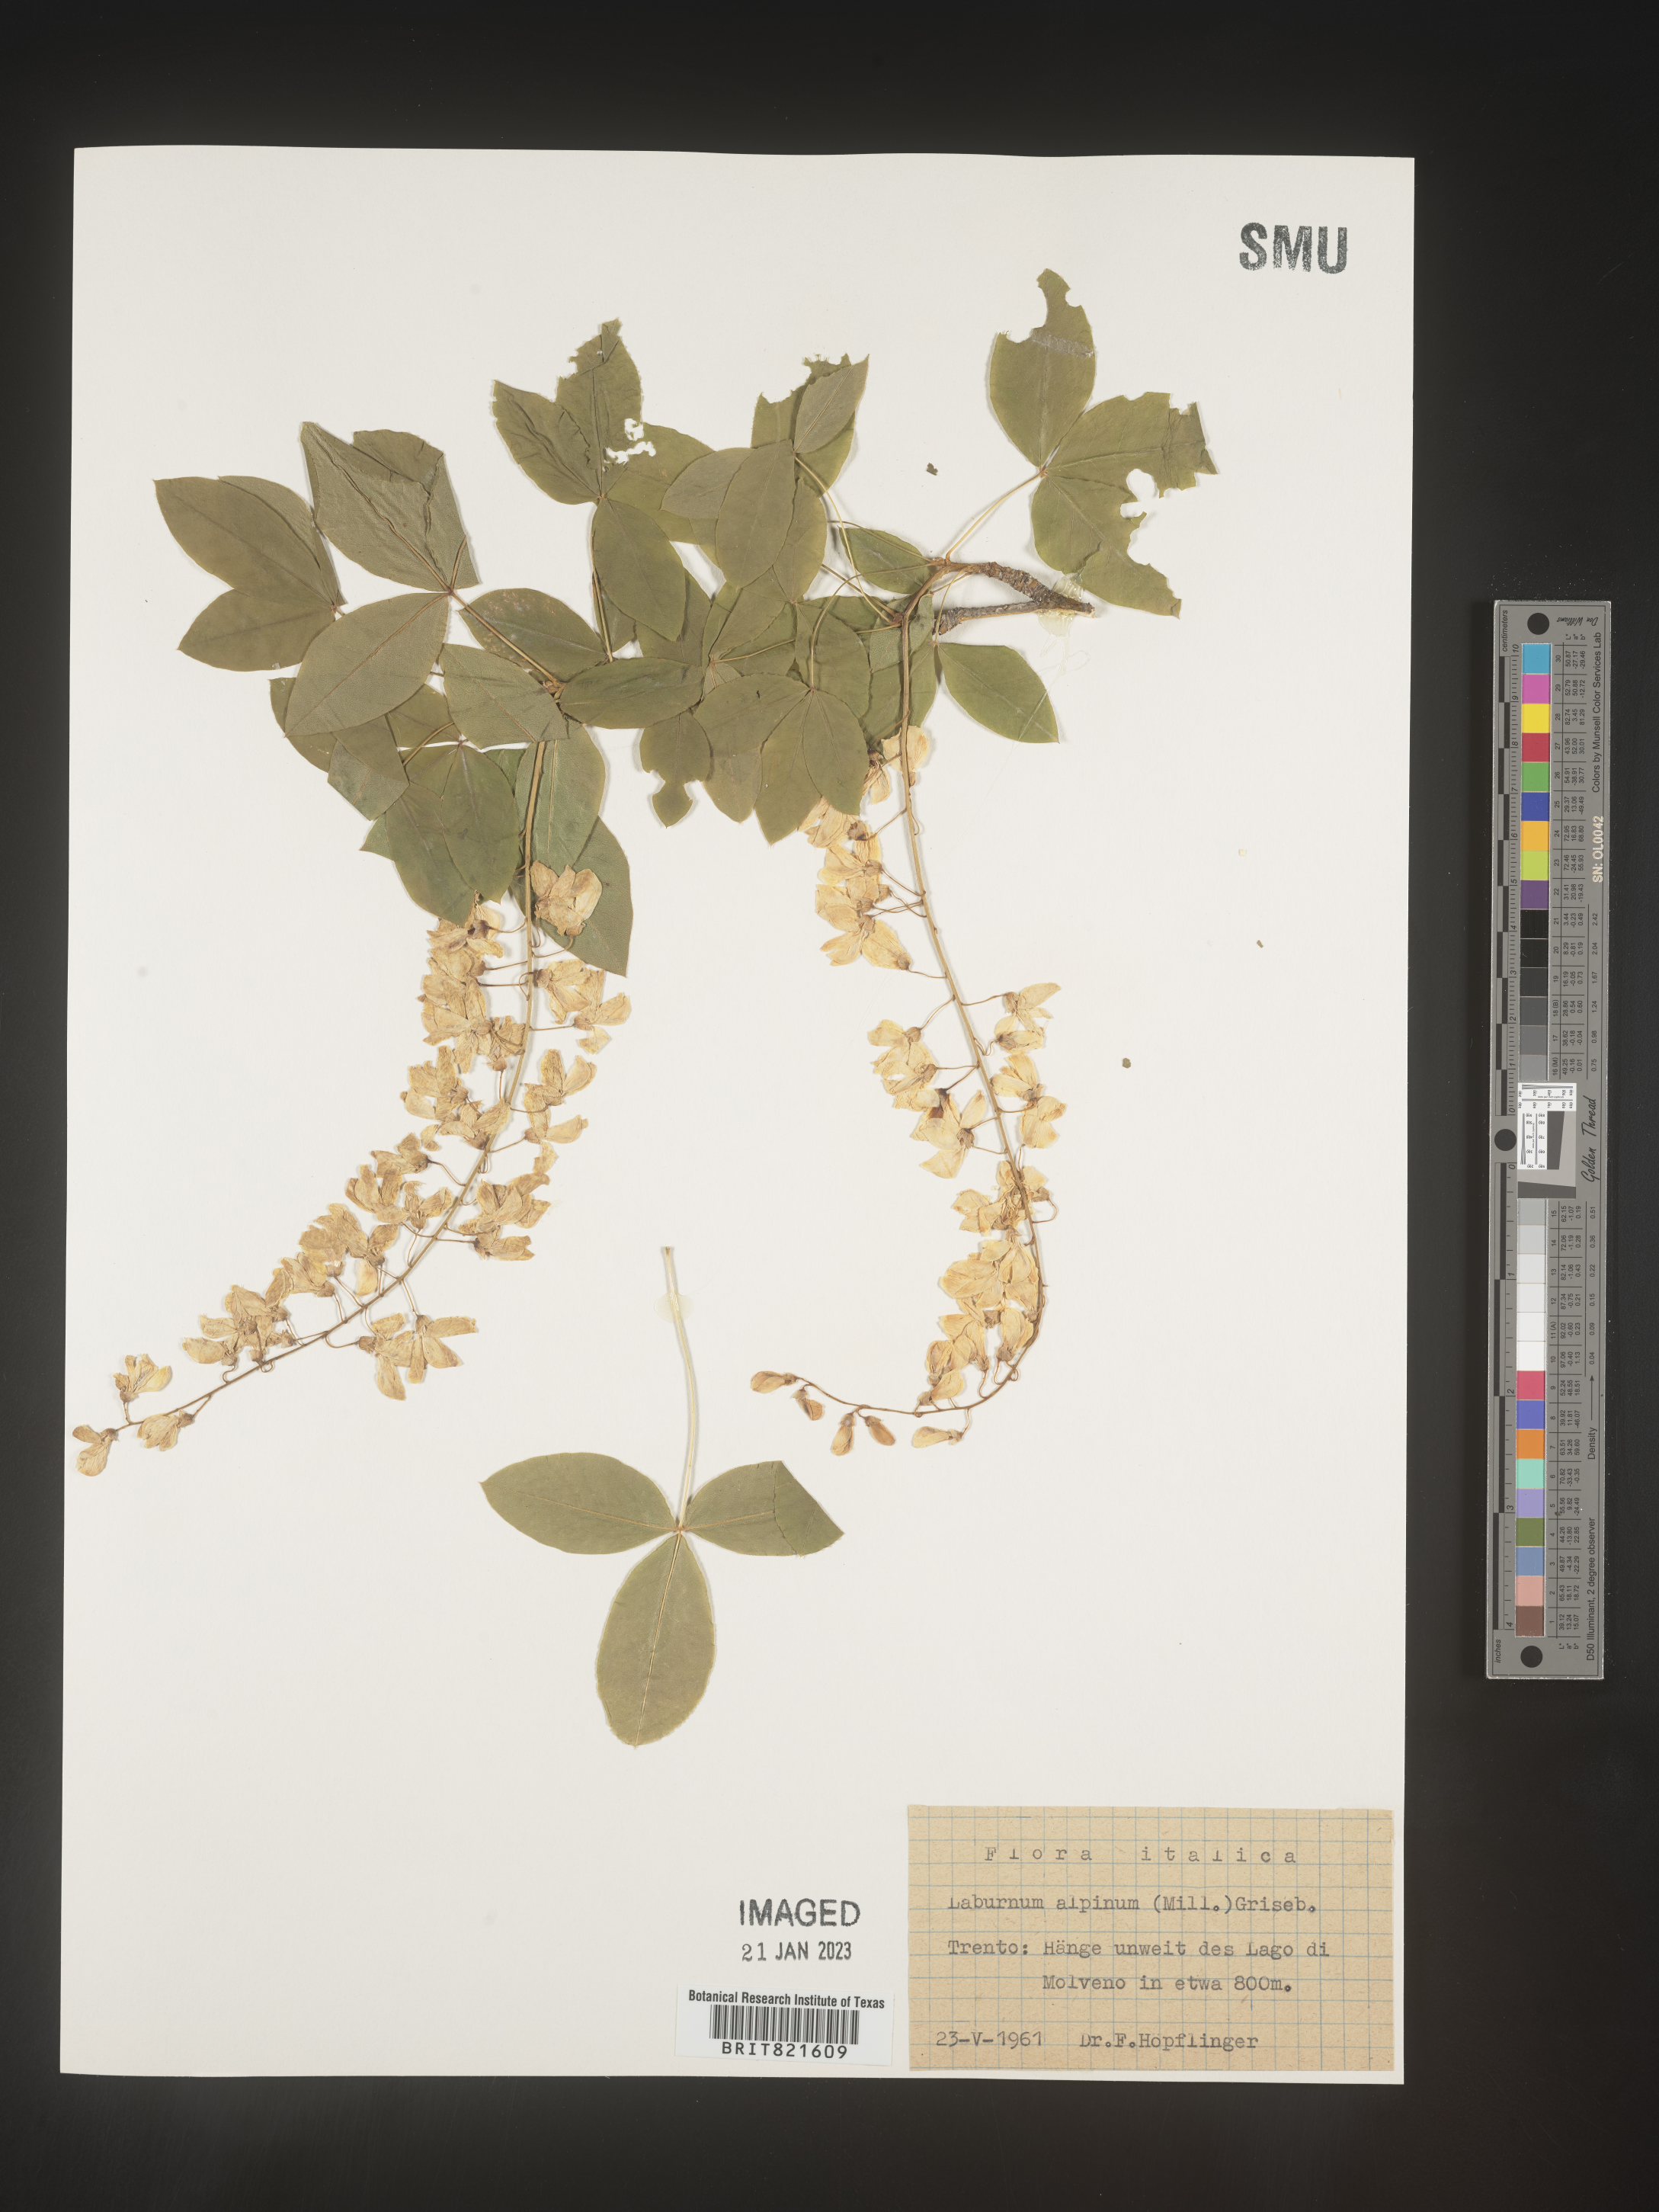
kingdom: Plantae
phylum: Tracheophyta
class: Magnoliopsida
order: Fabales
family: Fabaceae
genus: Laburnum
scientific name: Laburnum
